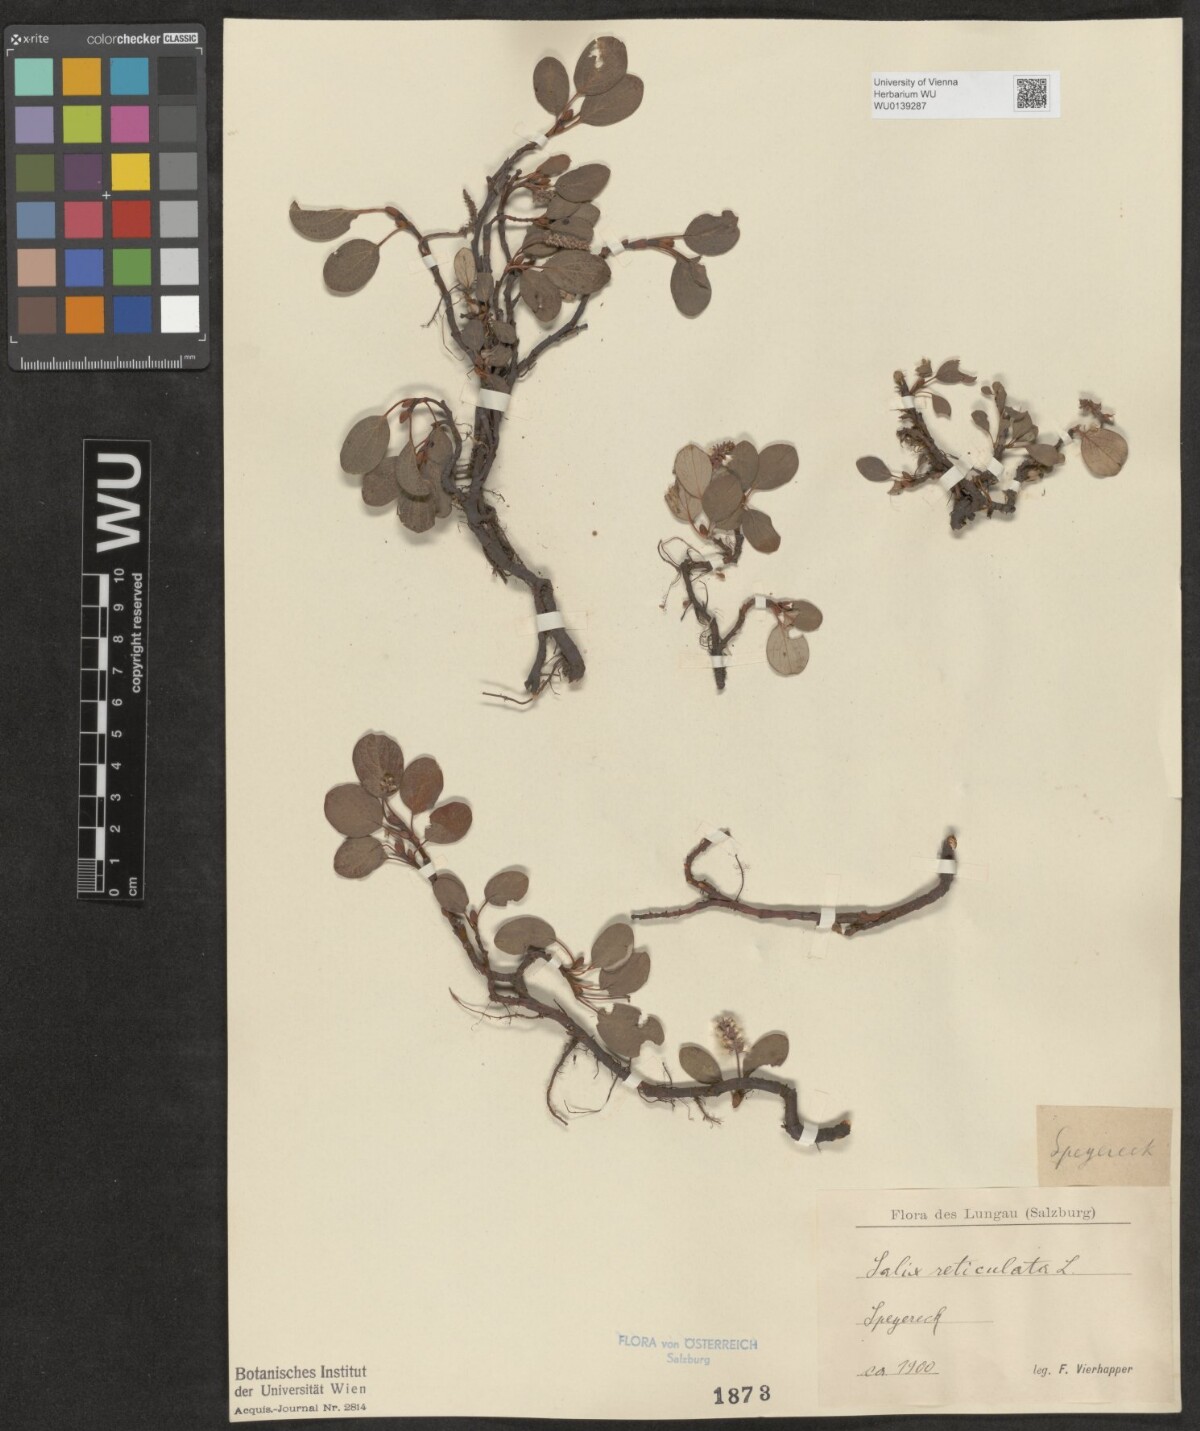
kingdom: Plantae
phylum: Tracheophyta
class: Magnoliopsida
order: Malpighiales
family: Salicaceae
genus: Salix
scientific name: Salix reticulata
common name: Net-leaved willow
